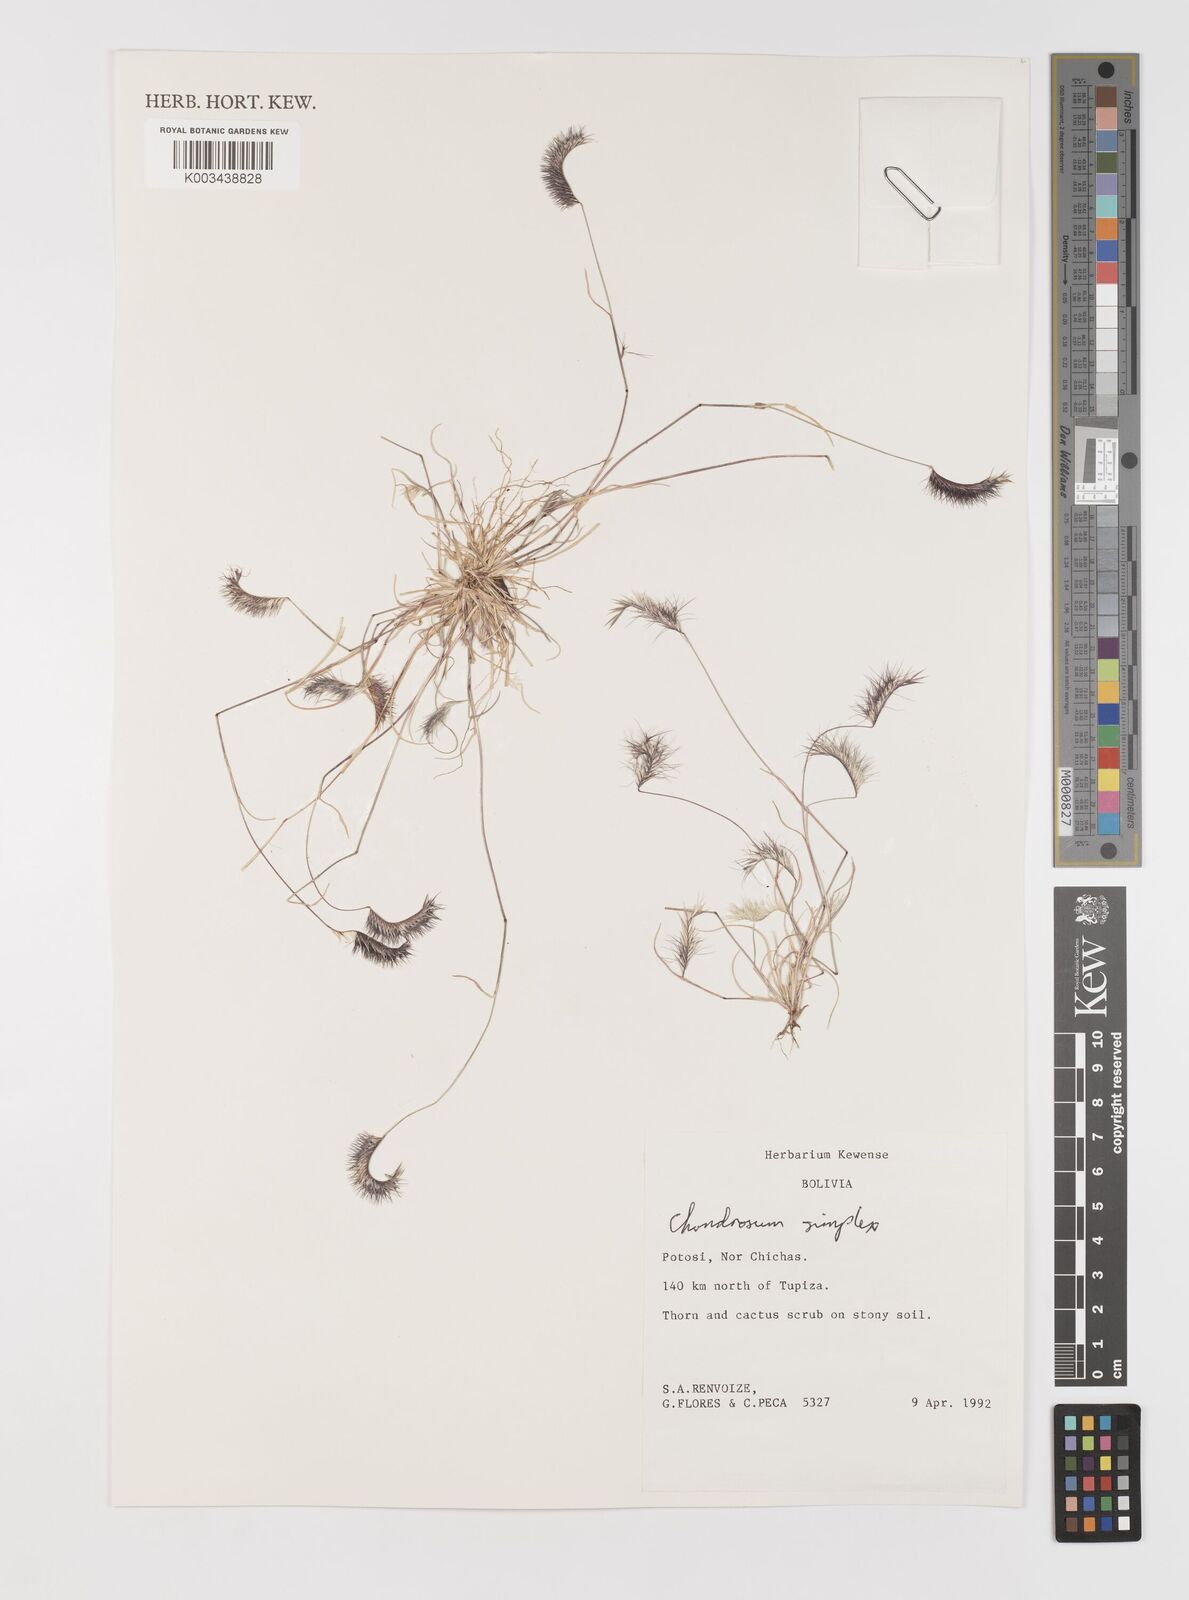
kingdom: Plantae
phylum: Tracheophyta
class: Liliopsida
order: Poales
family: Poaceae
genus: Bouteloua
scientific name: Bouteloua simplex
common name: Mat grama
